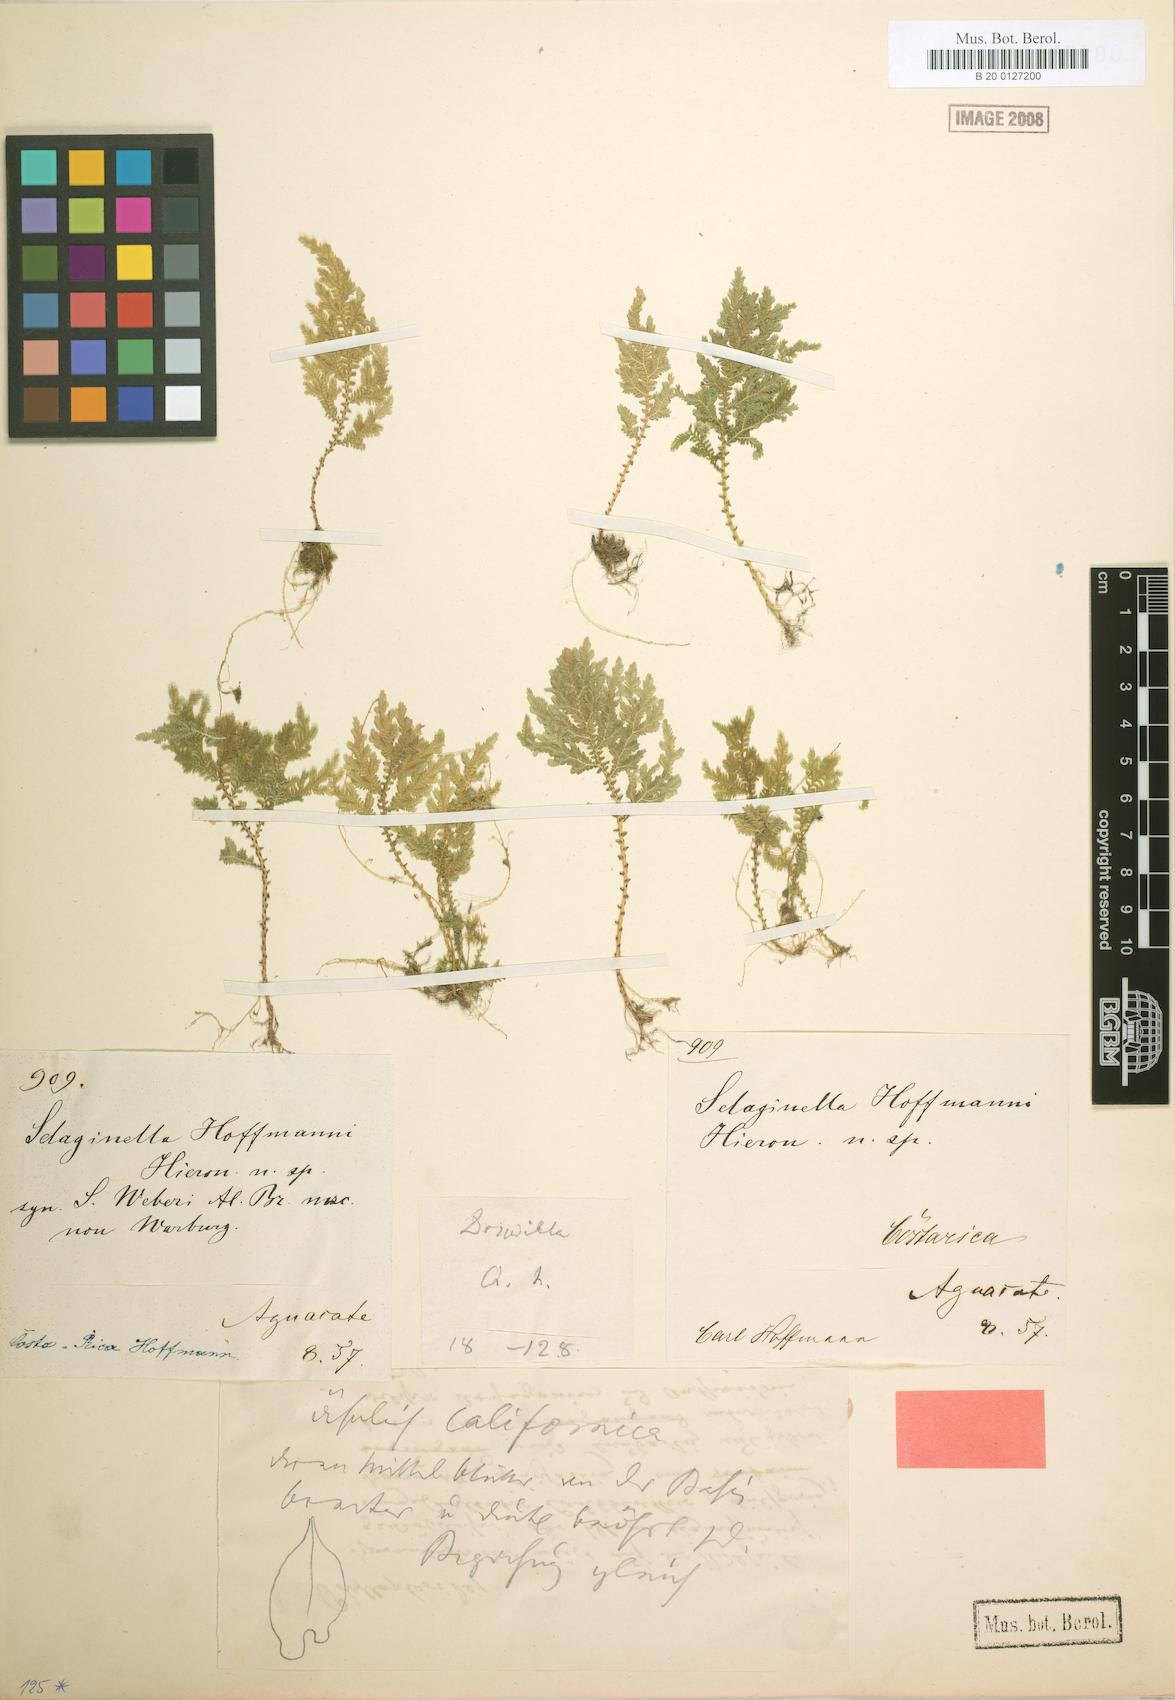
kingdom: Plantae
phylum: Tracheophyta
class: Lycopodiopsida
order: Selaginellales
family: Selaginellaceae
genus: Selaginella
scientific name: Selaginella hoffmannii
